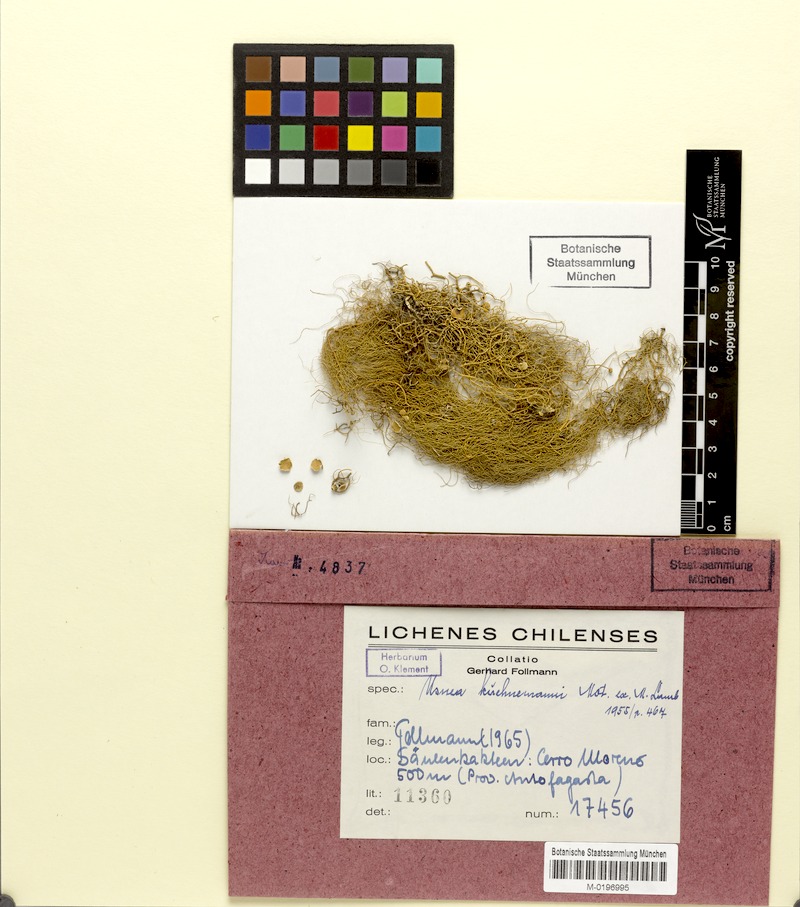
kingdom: Fungi
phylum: Ascomycota
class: Lecanoromycetes
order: Lecanorales
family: Parmeliaceae
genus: Usnea
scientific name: Usnea
